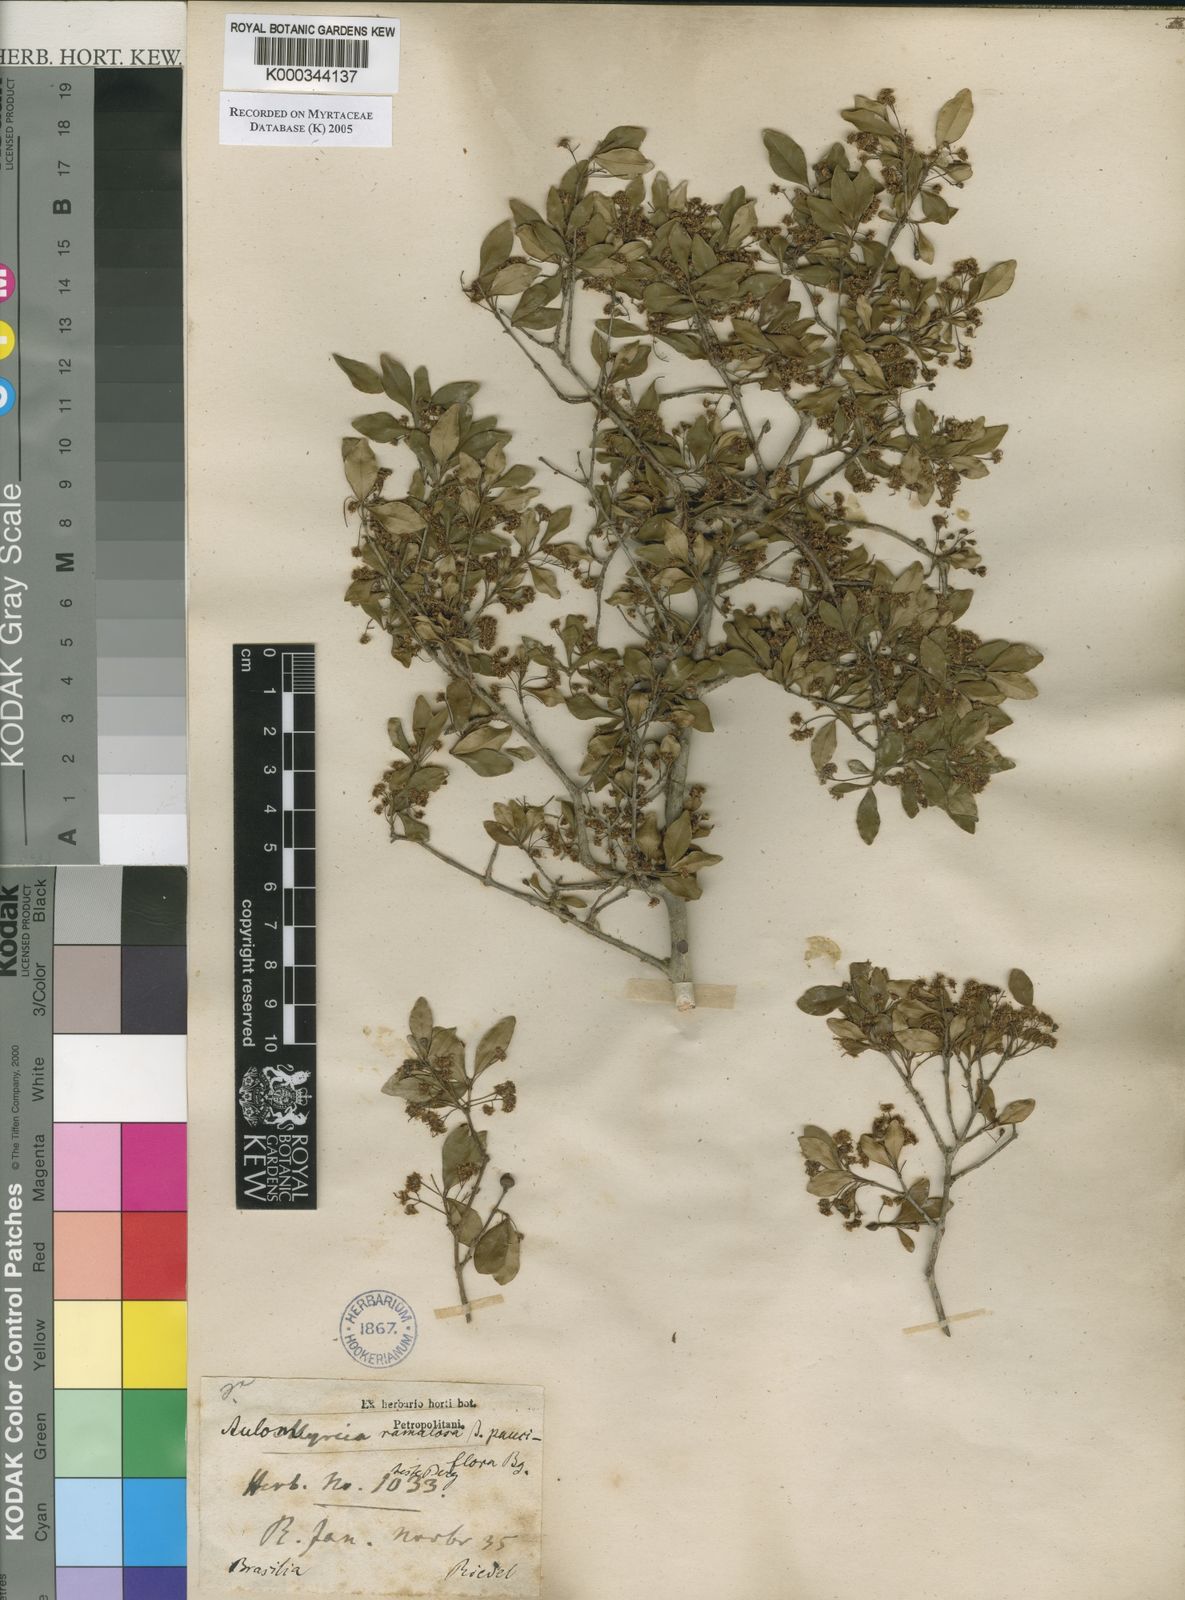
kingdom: Plantae
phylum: Tracheophyta
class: Magnoliopsida
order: Myrtales
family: Myrtaceae
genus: Myrcia
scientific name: Myrcia selloi
